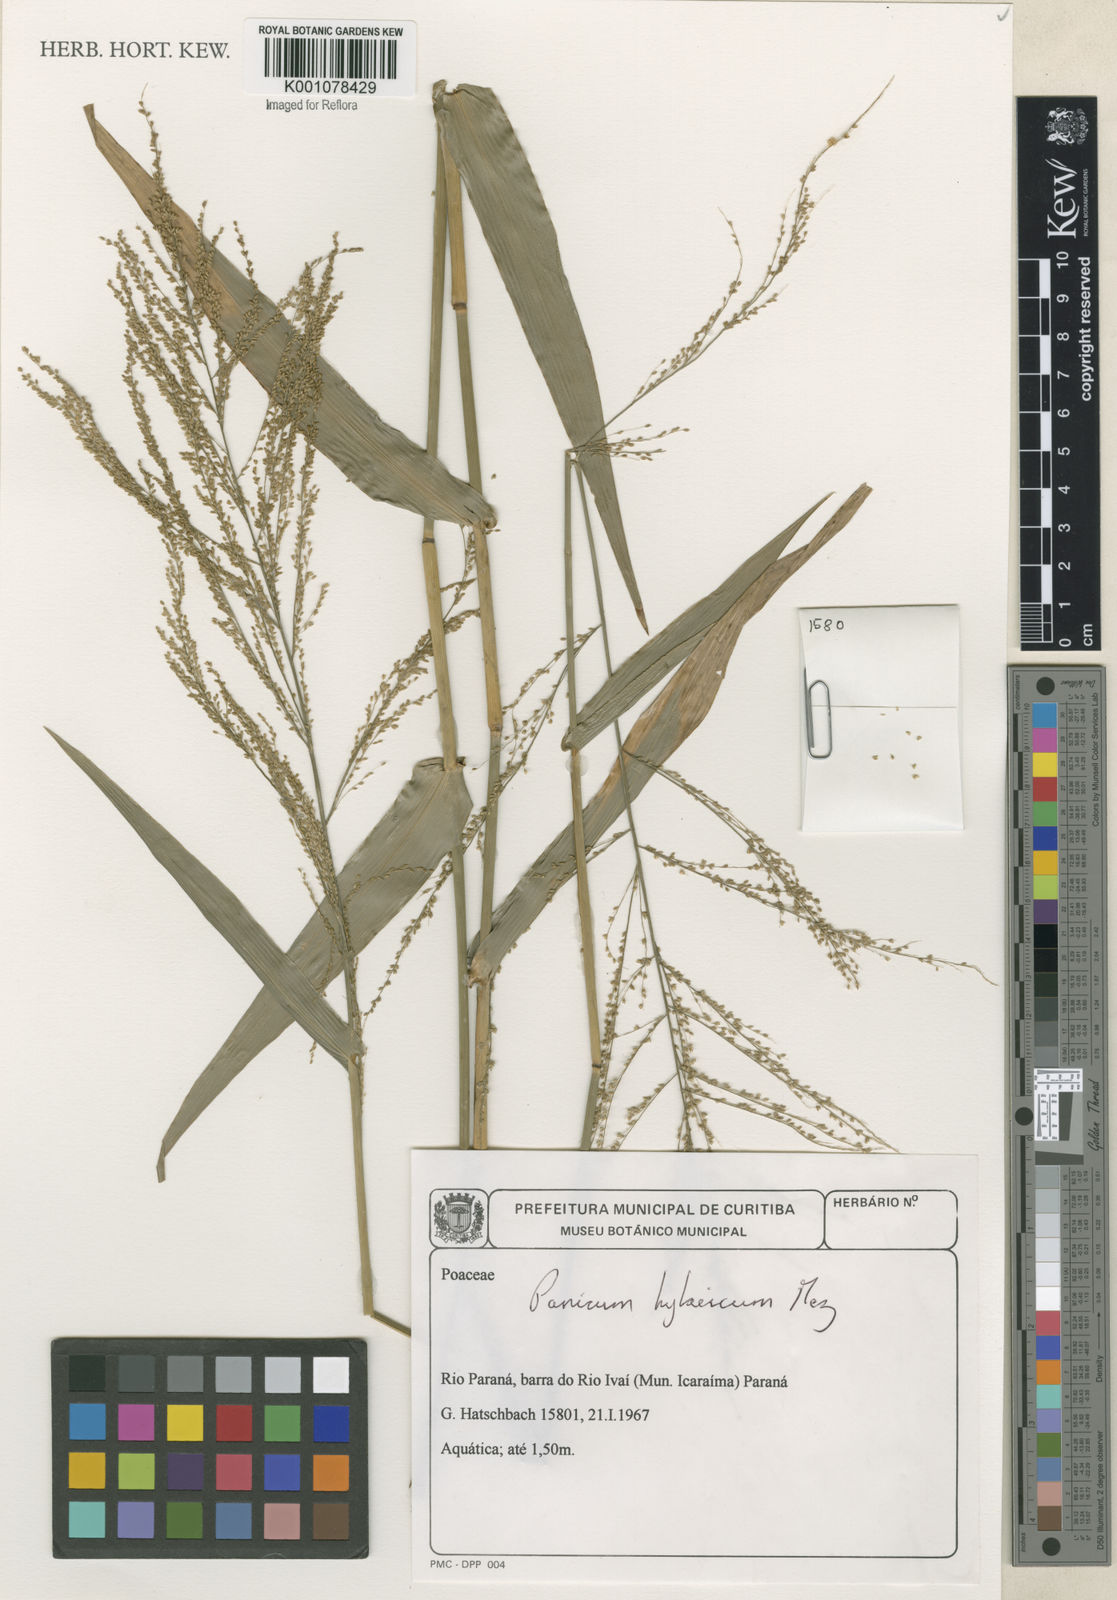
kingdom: Plantae
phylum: Tracheophyta
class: Liliopsida
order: Poales
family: Poaceae
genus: Rugoloa
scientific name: Rugoloa hylaeica
